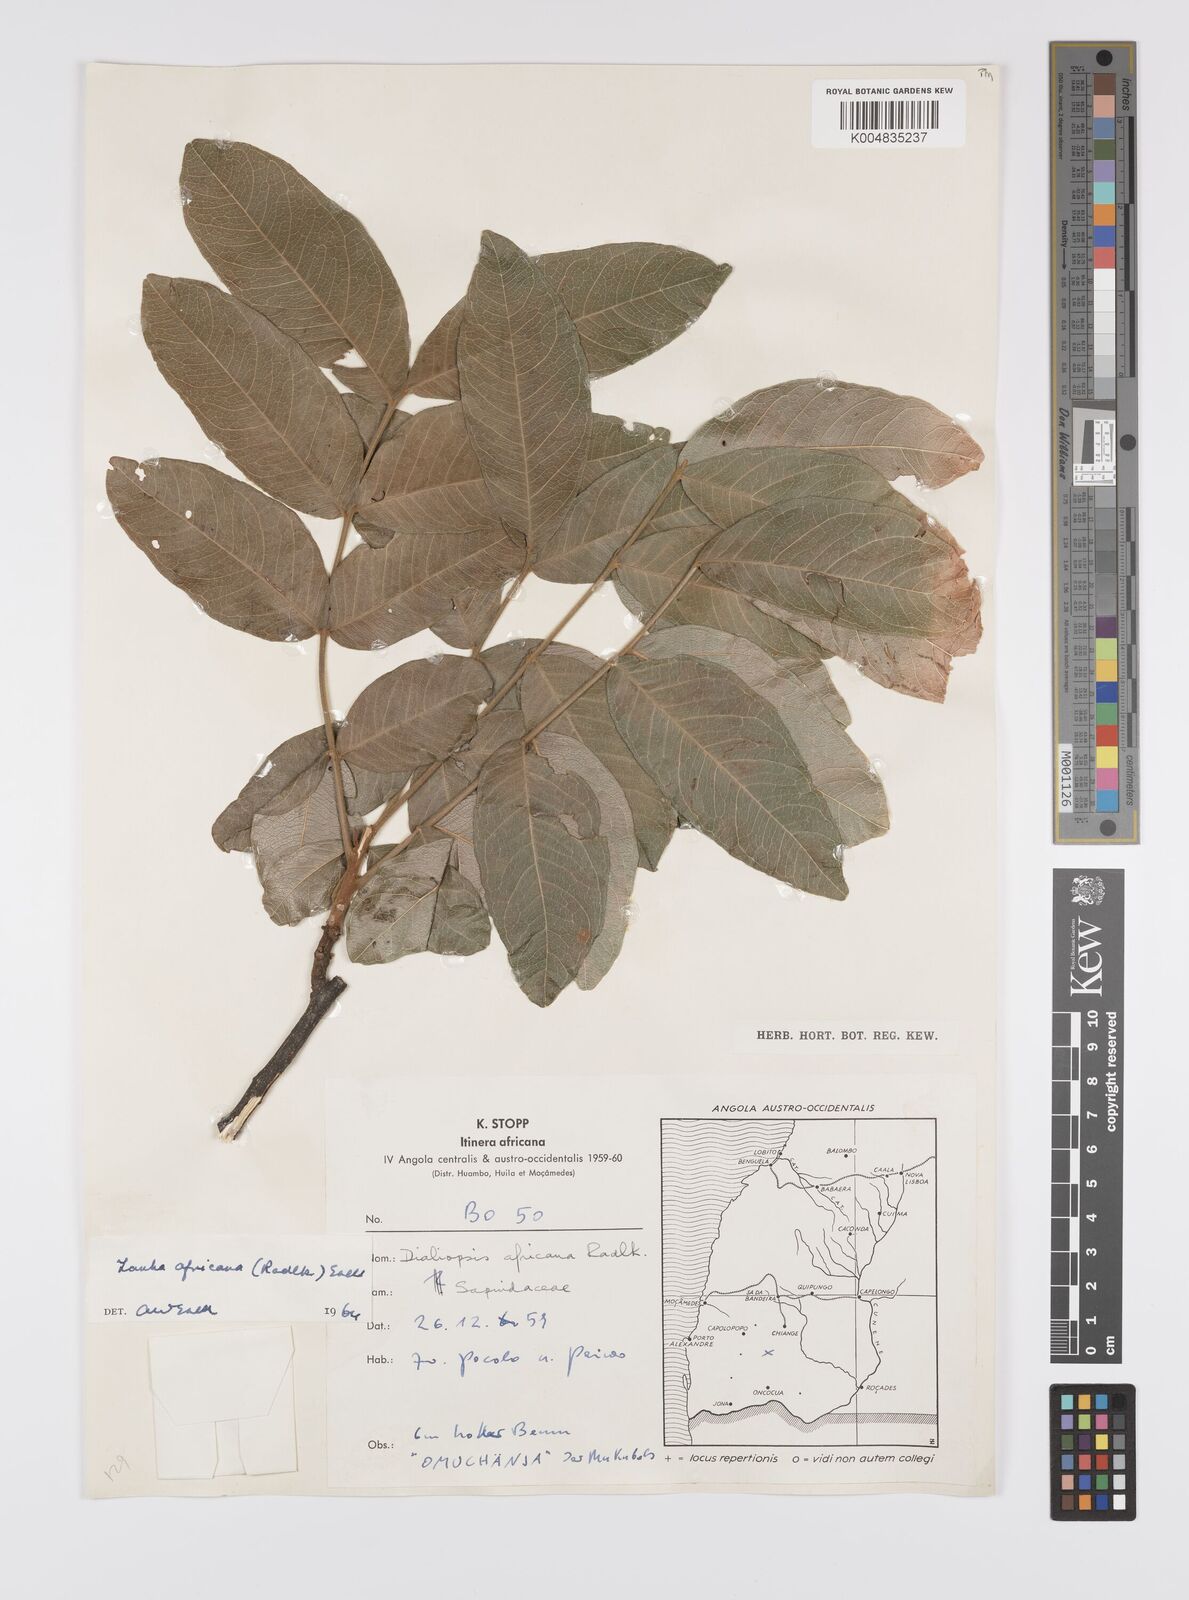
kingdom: Plantae
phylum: Tracheophyta
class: Magnoliopsida
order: Sapindales
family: Sapindaceae
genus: Zanha
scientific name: Zanha africana
